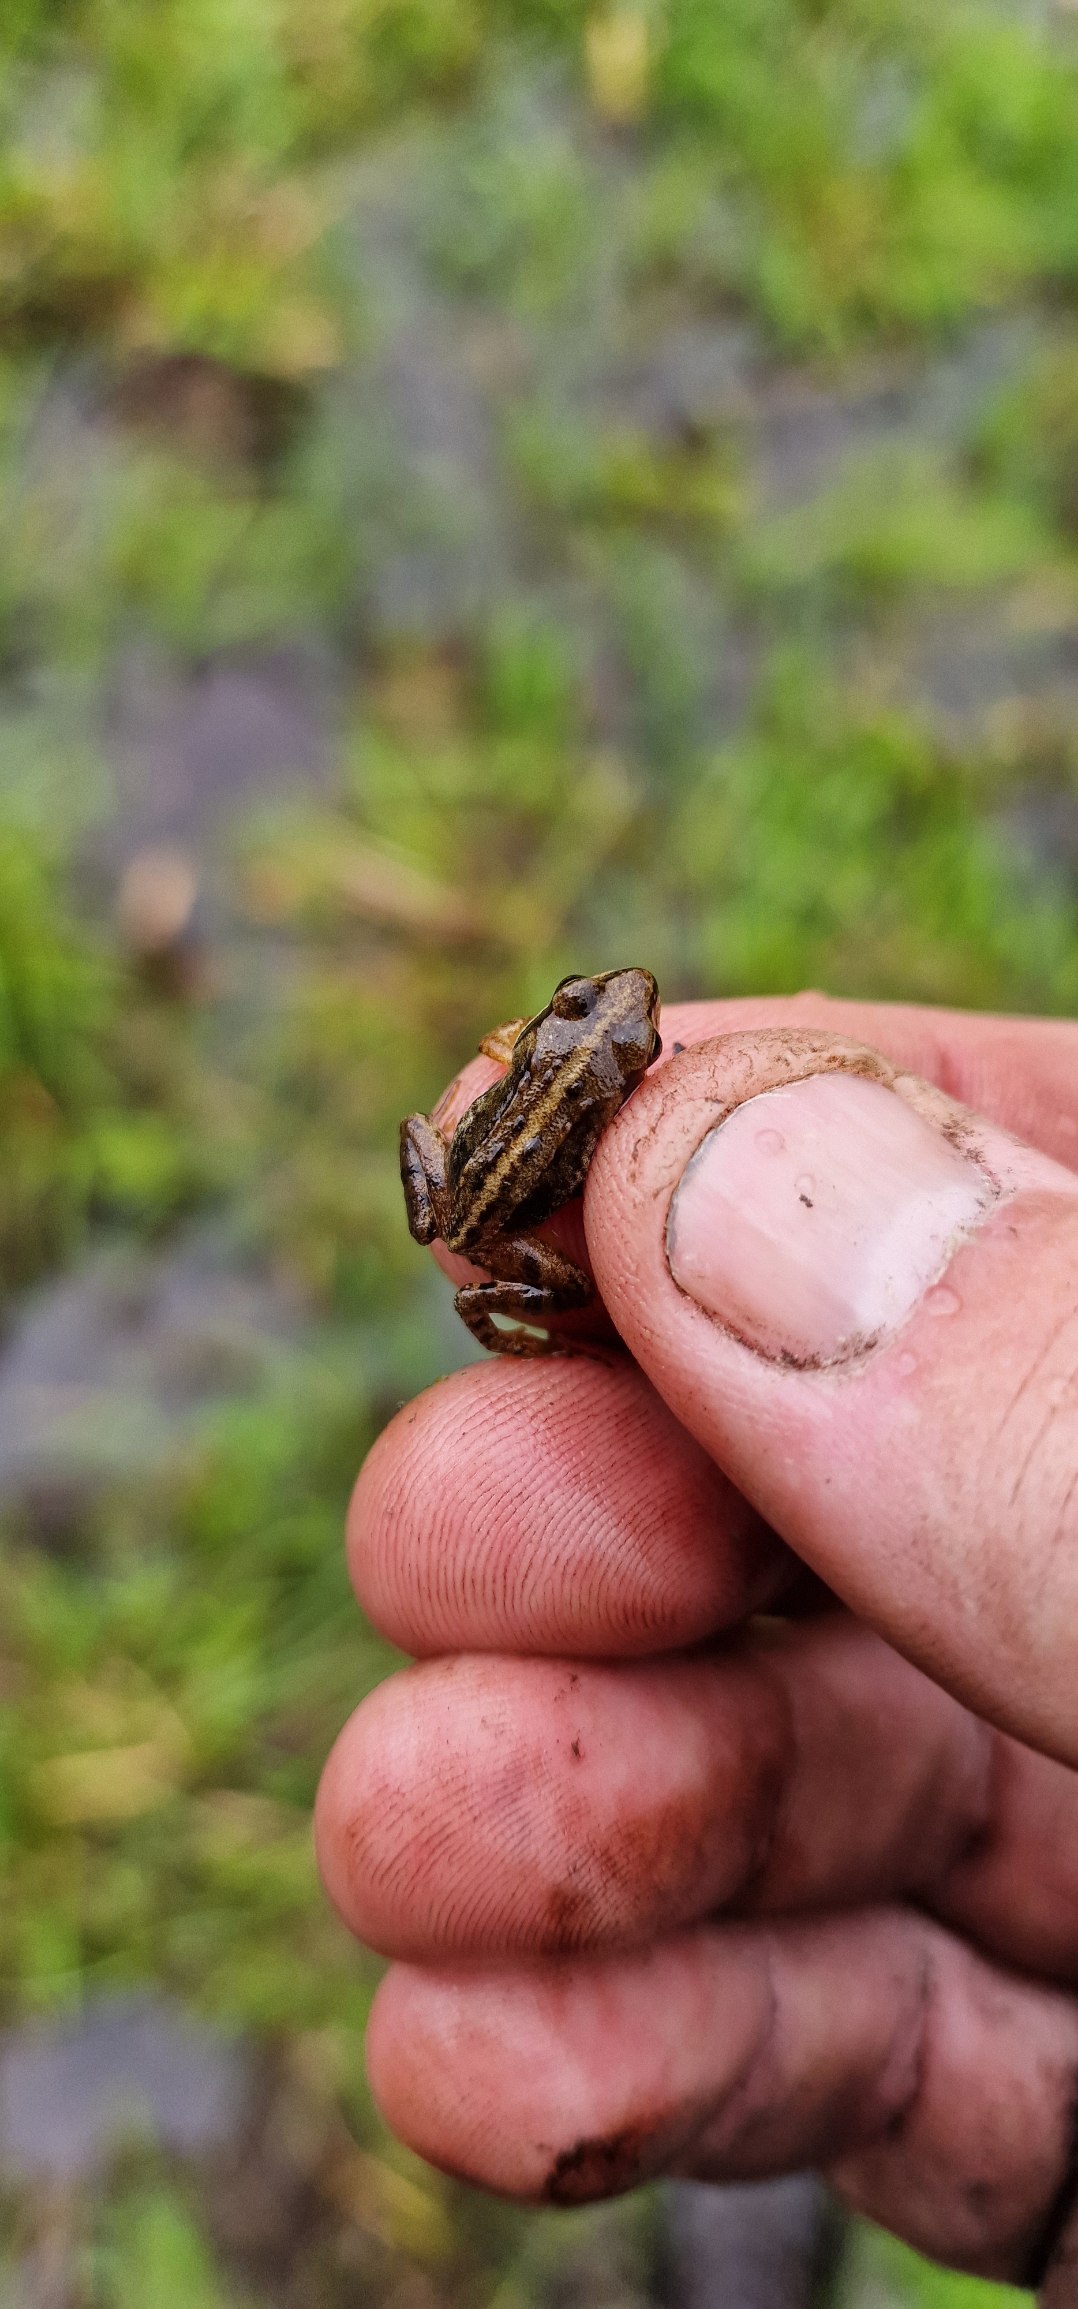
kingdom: Animalia
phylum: Chordata
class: Amphibia
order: Anura
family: Ranidae
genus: Rana
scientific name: Rana arvalis
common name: Spidssnudet frø
